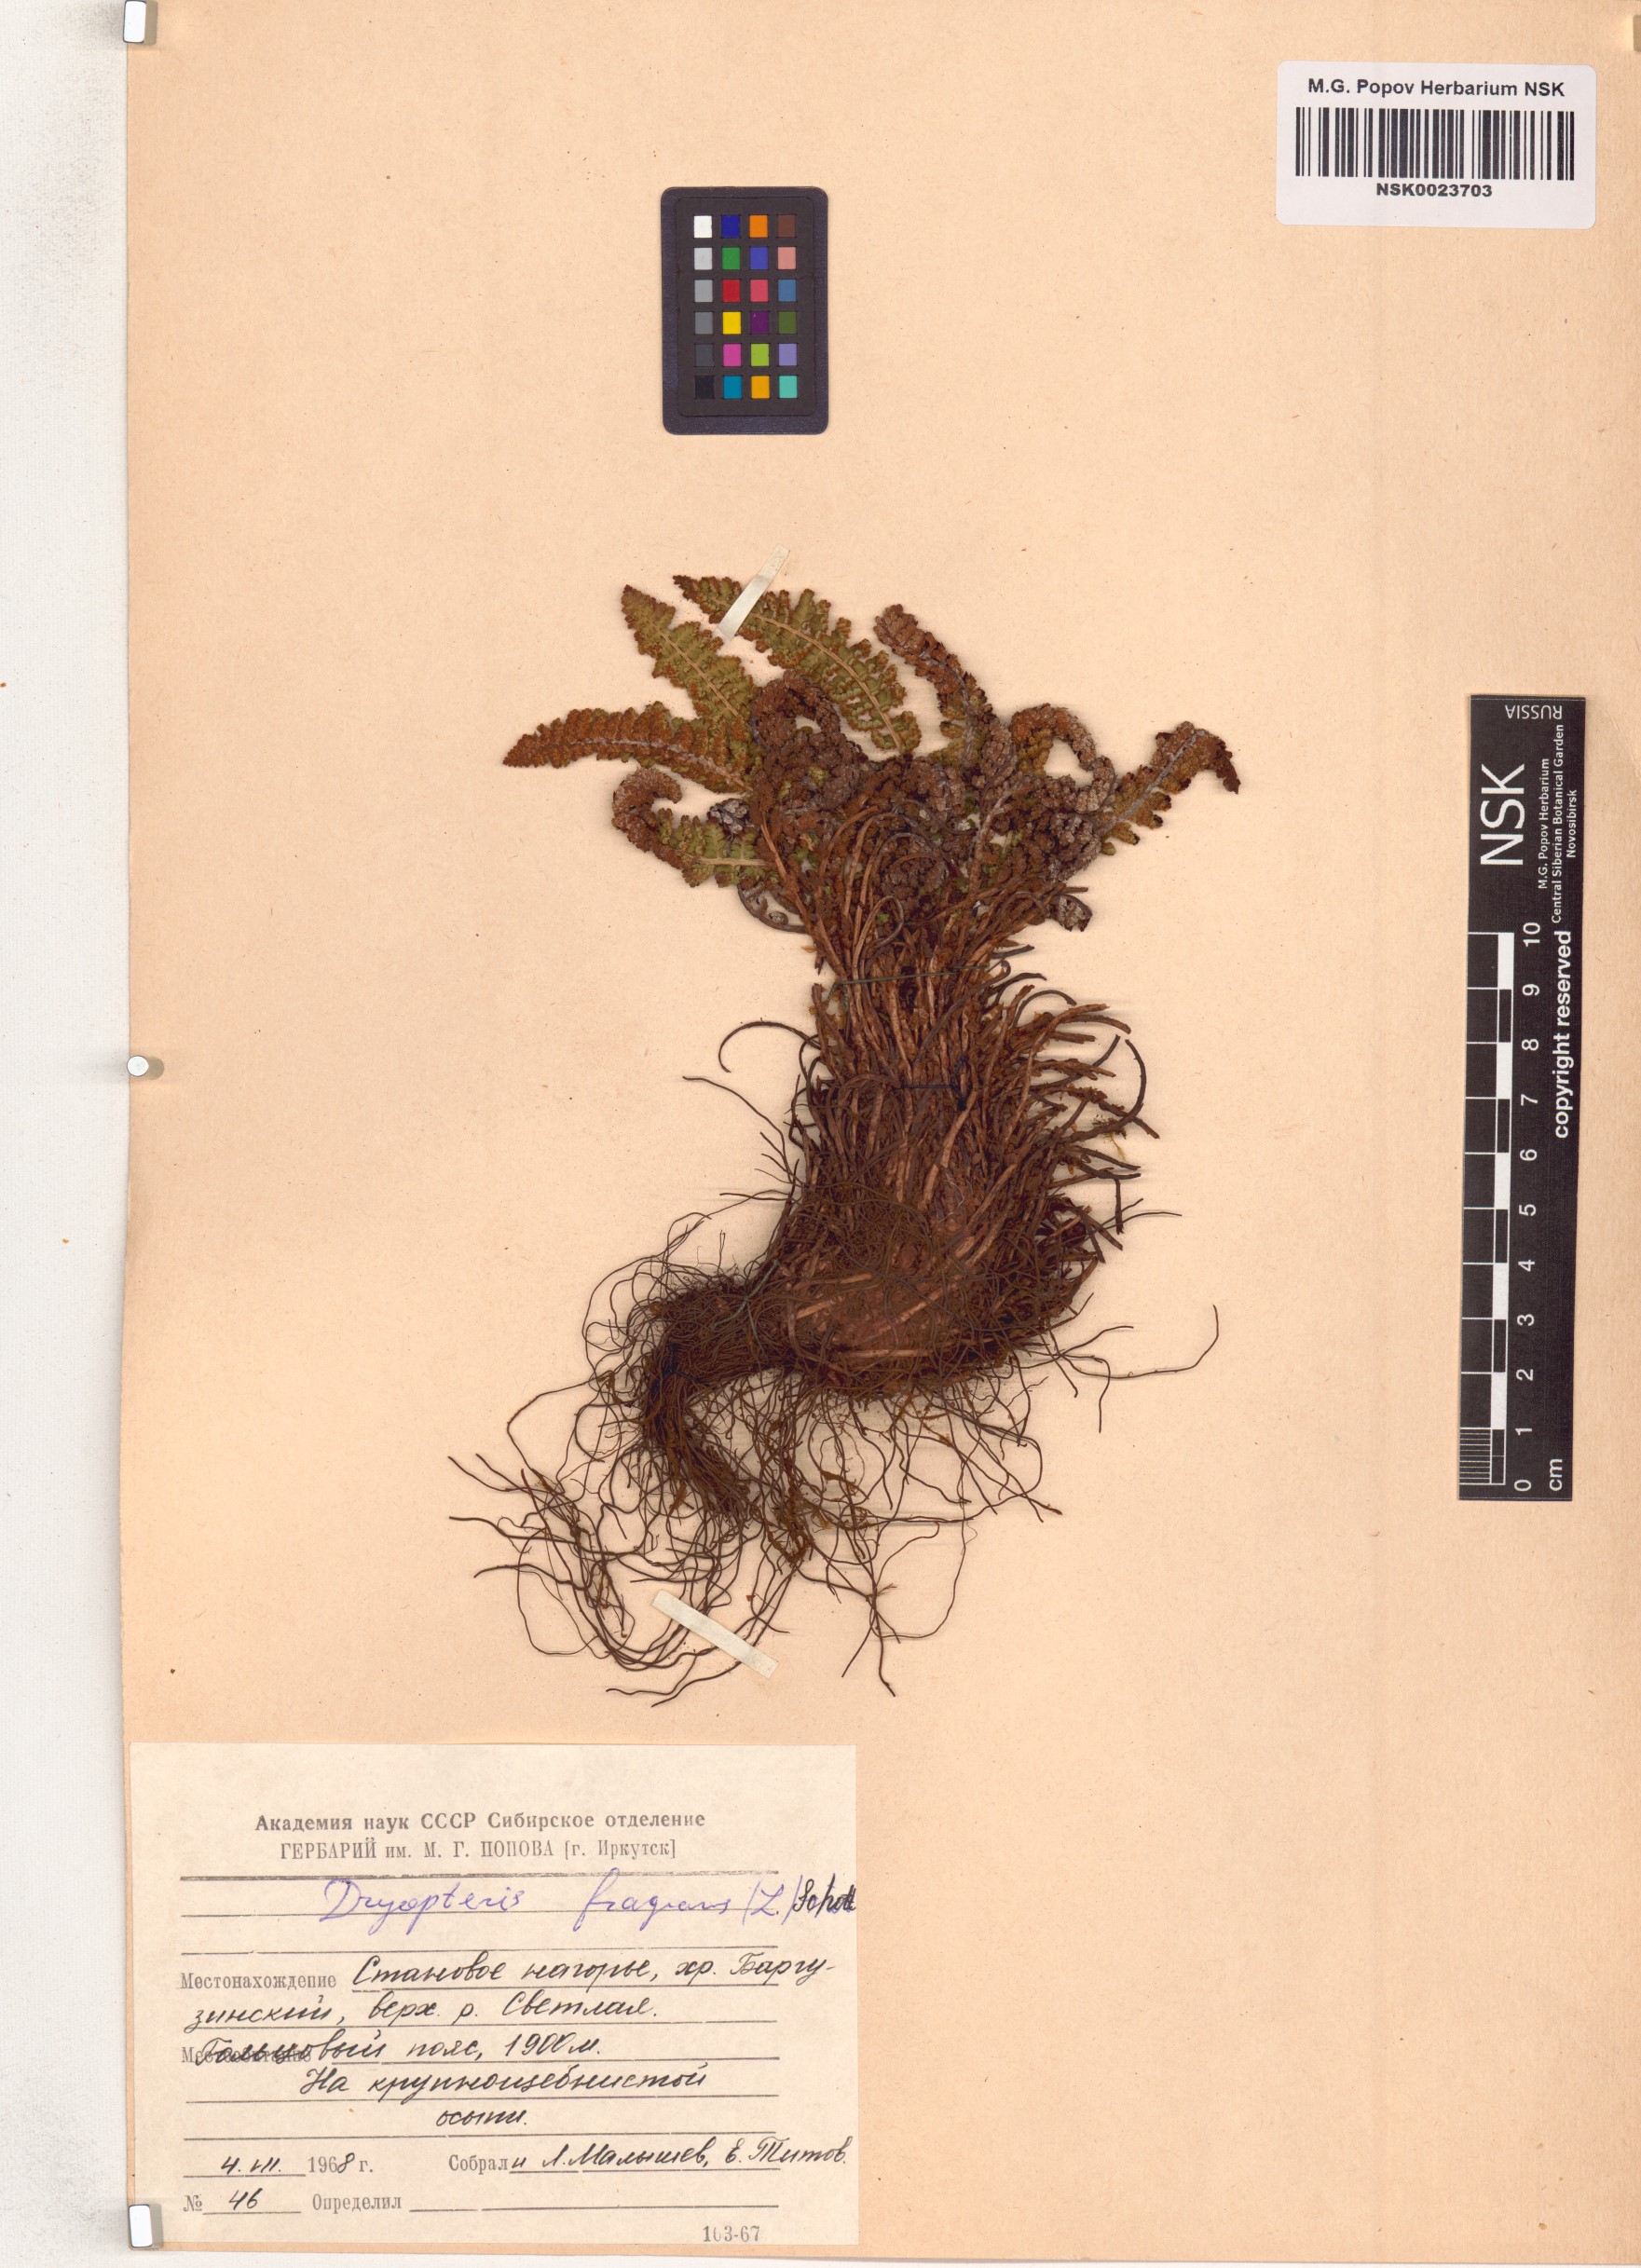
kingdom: Plantae
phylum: Tracheophyta
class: Polypodiopsida
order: Polypodiales
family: Dryopteridaceae
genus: Dryopteris
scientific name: Dryopteris fragrans
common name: Fragrant wood fern
